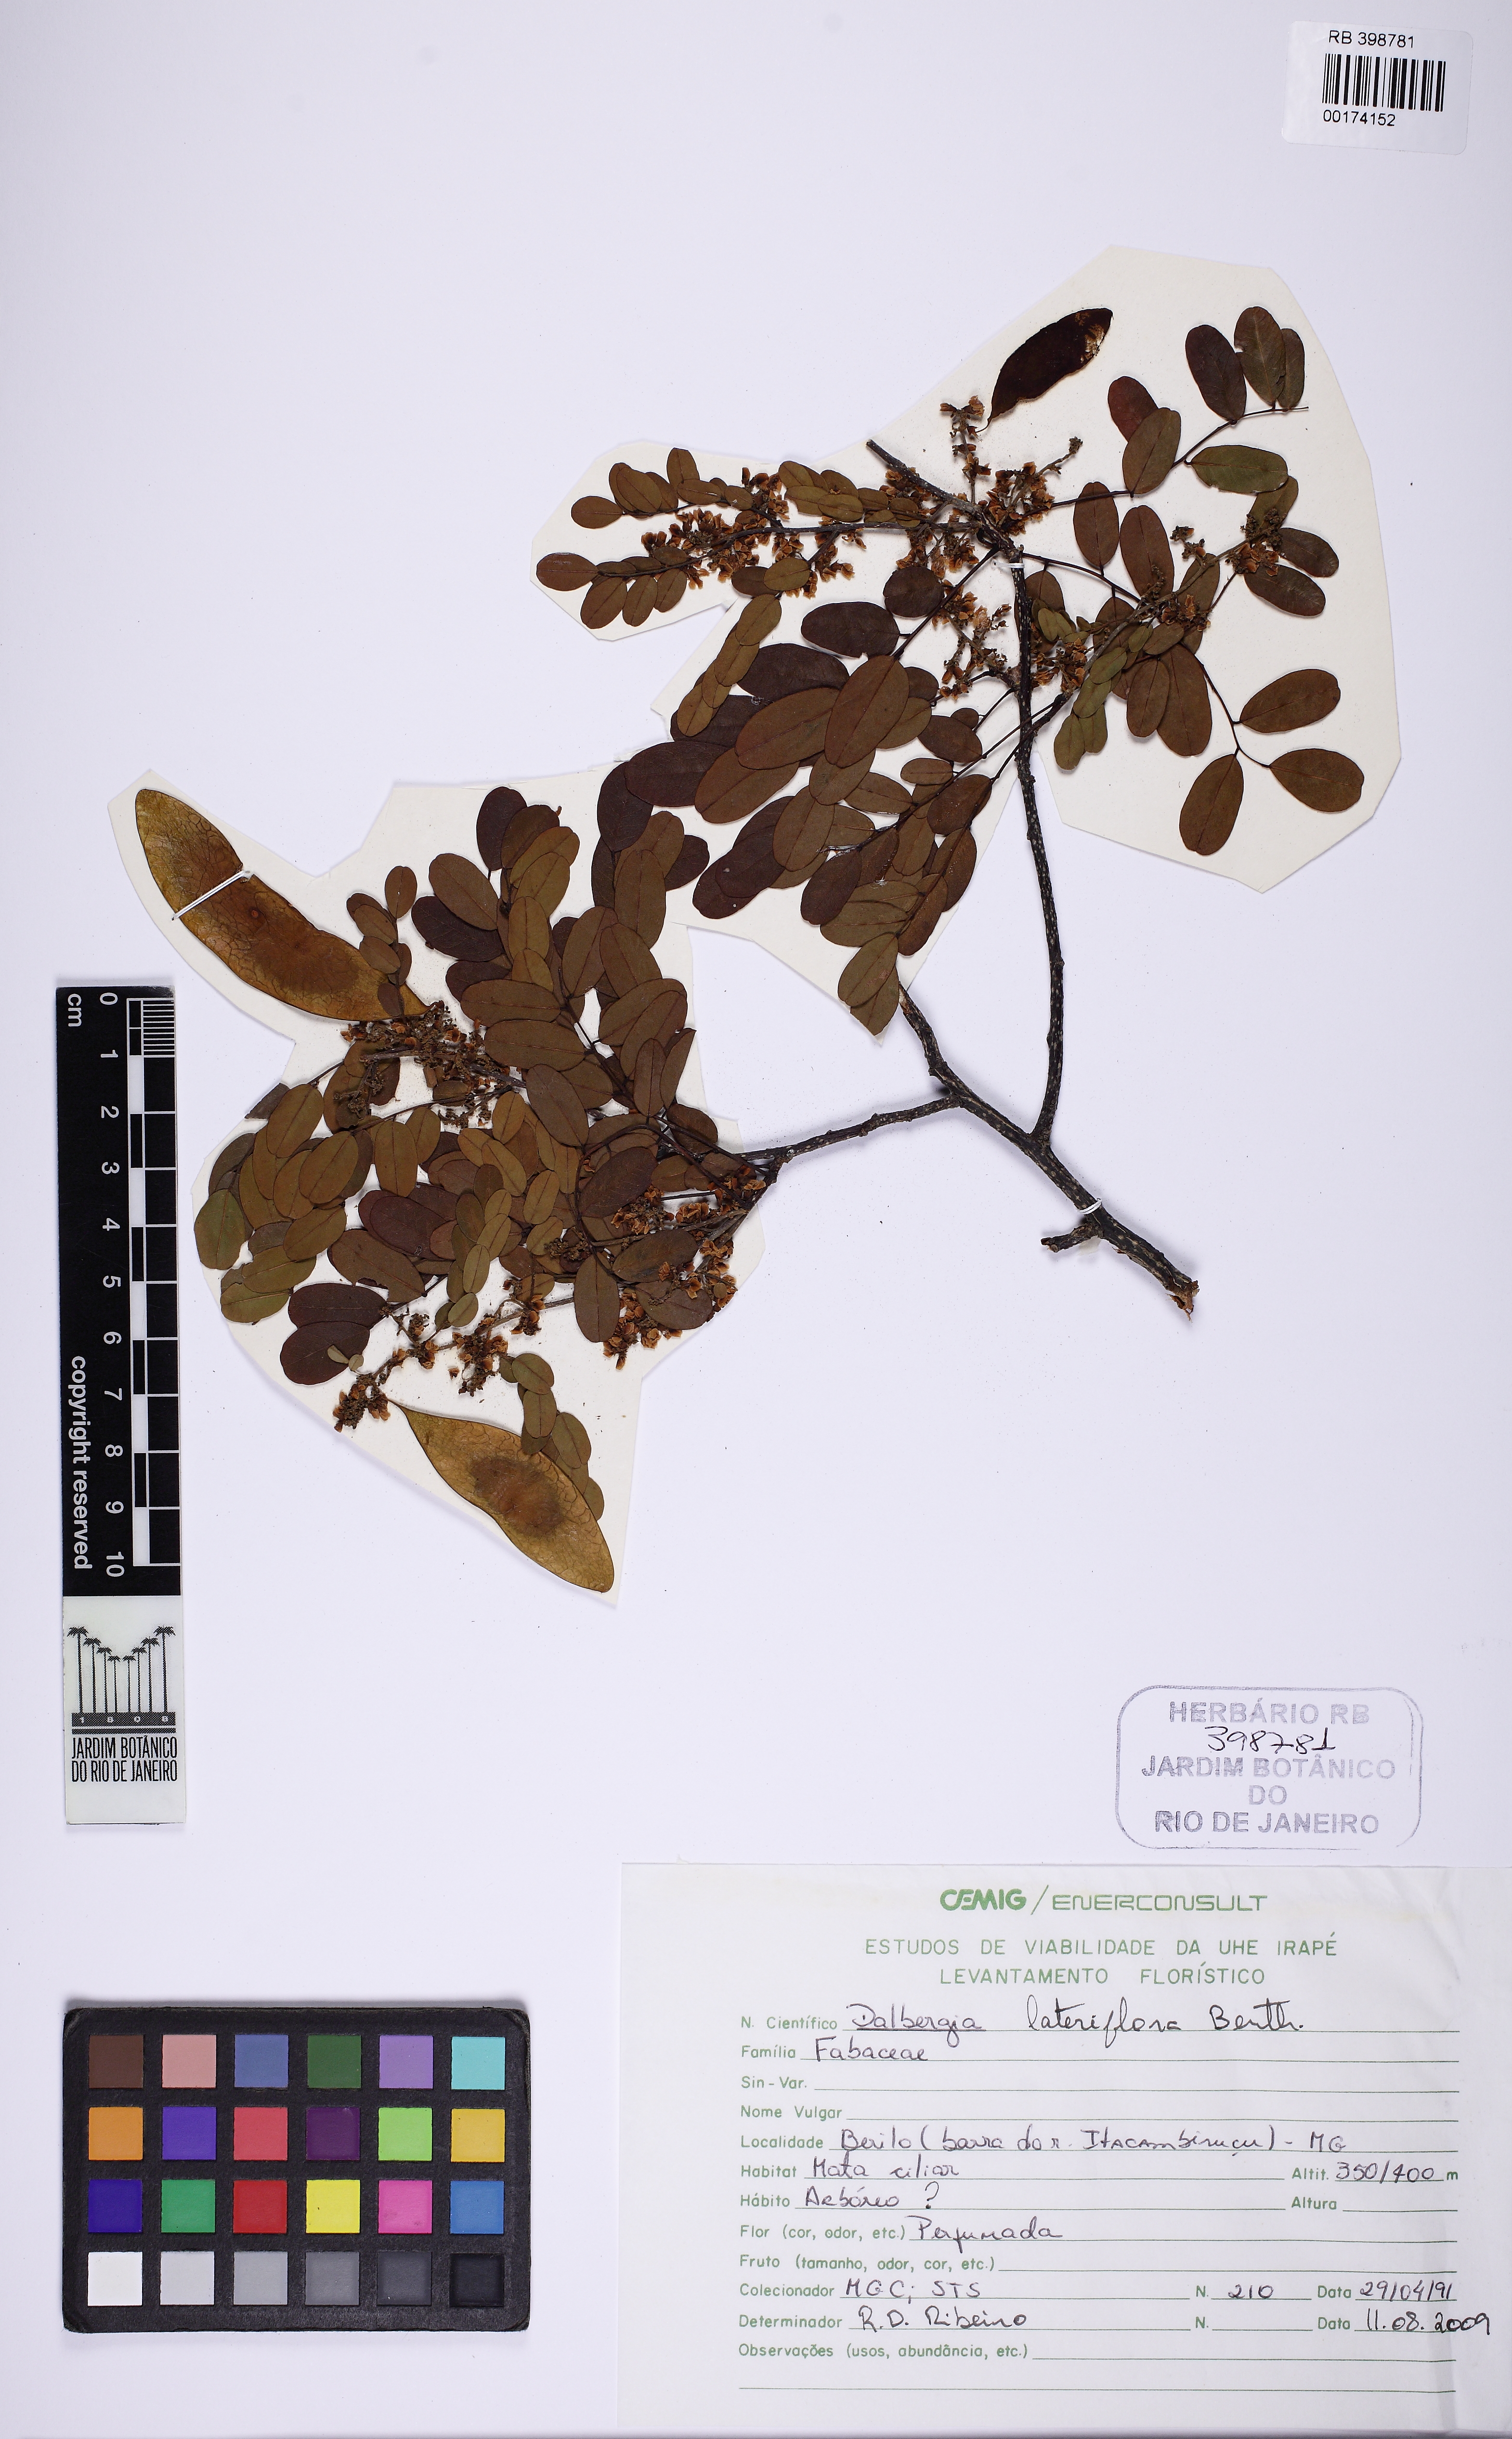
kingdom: Plantae
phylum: Tracheophyta
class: Magnoliopsida
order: Fabales
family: Fabaceae
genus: Dalbergia
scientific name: Dalbergia
